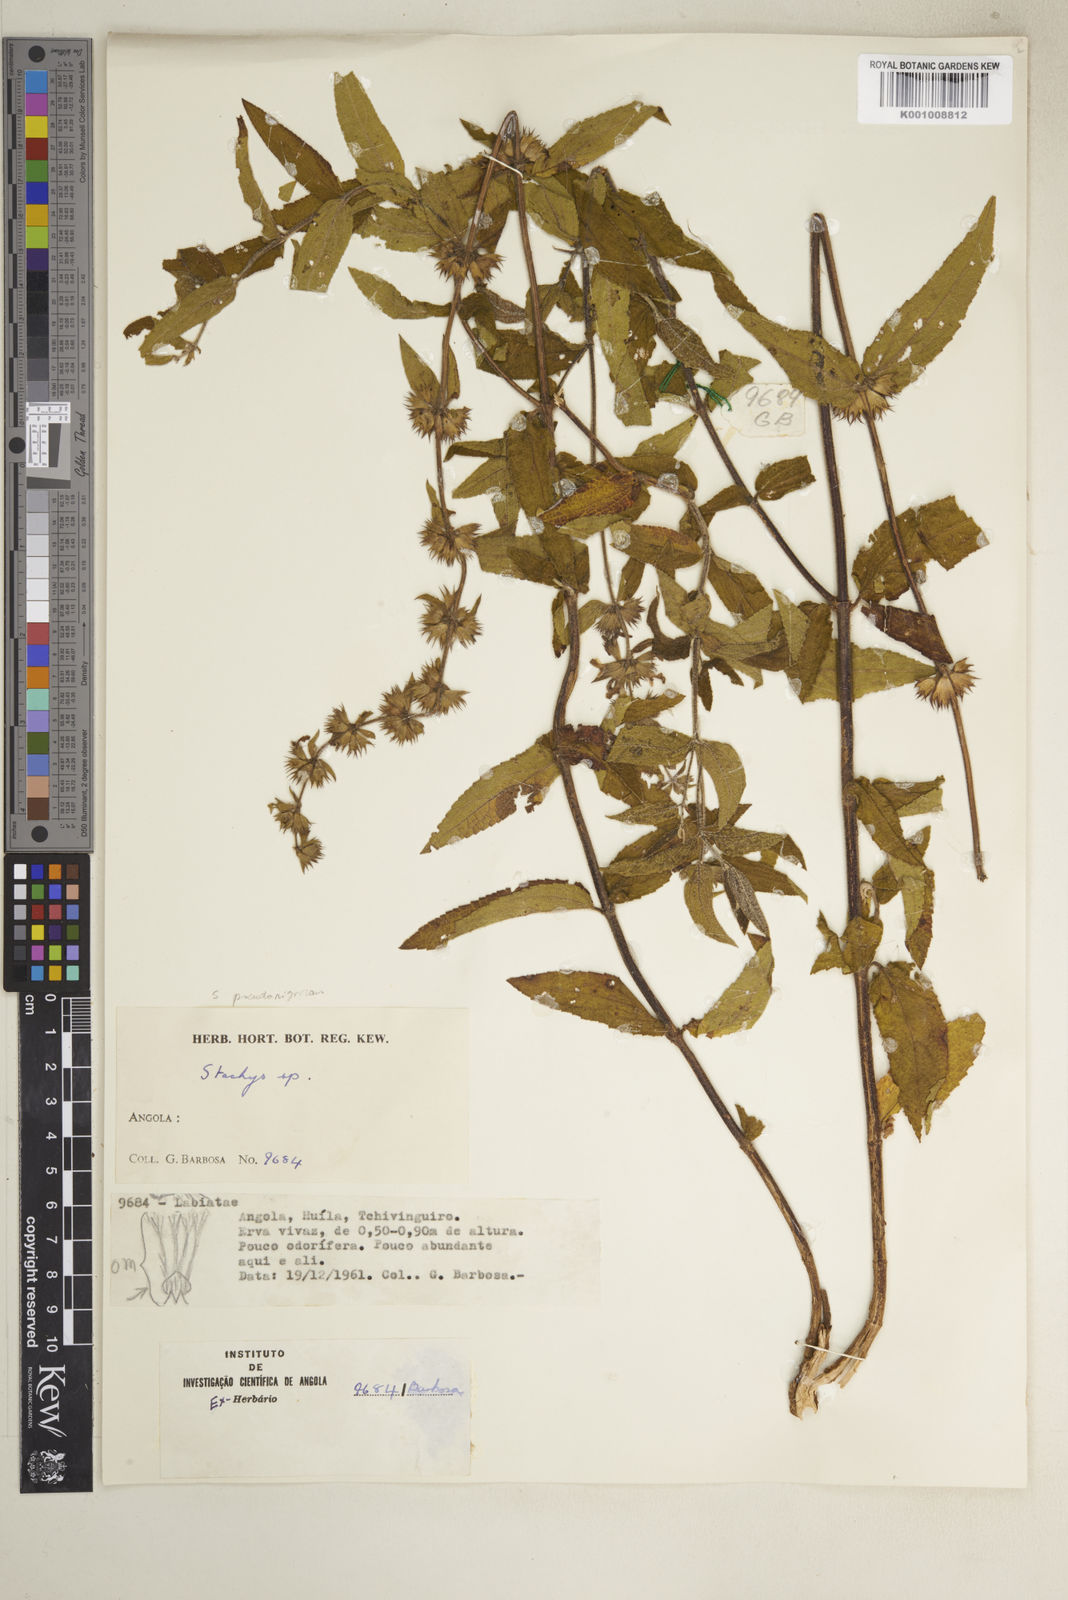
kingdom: Plantae
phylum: Tracheophyta
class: Magnoliopsida
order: Lamiales
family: Lamiaceae
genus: Stachys
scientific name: Stachys
